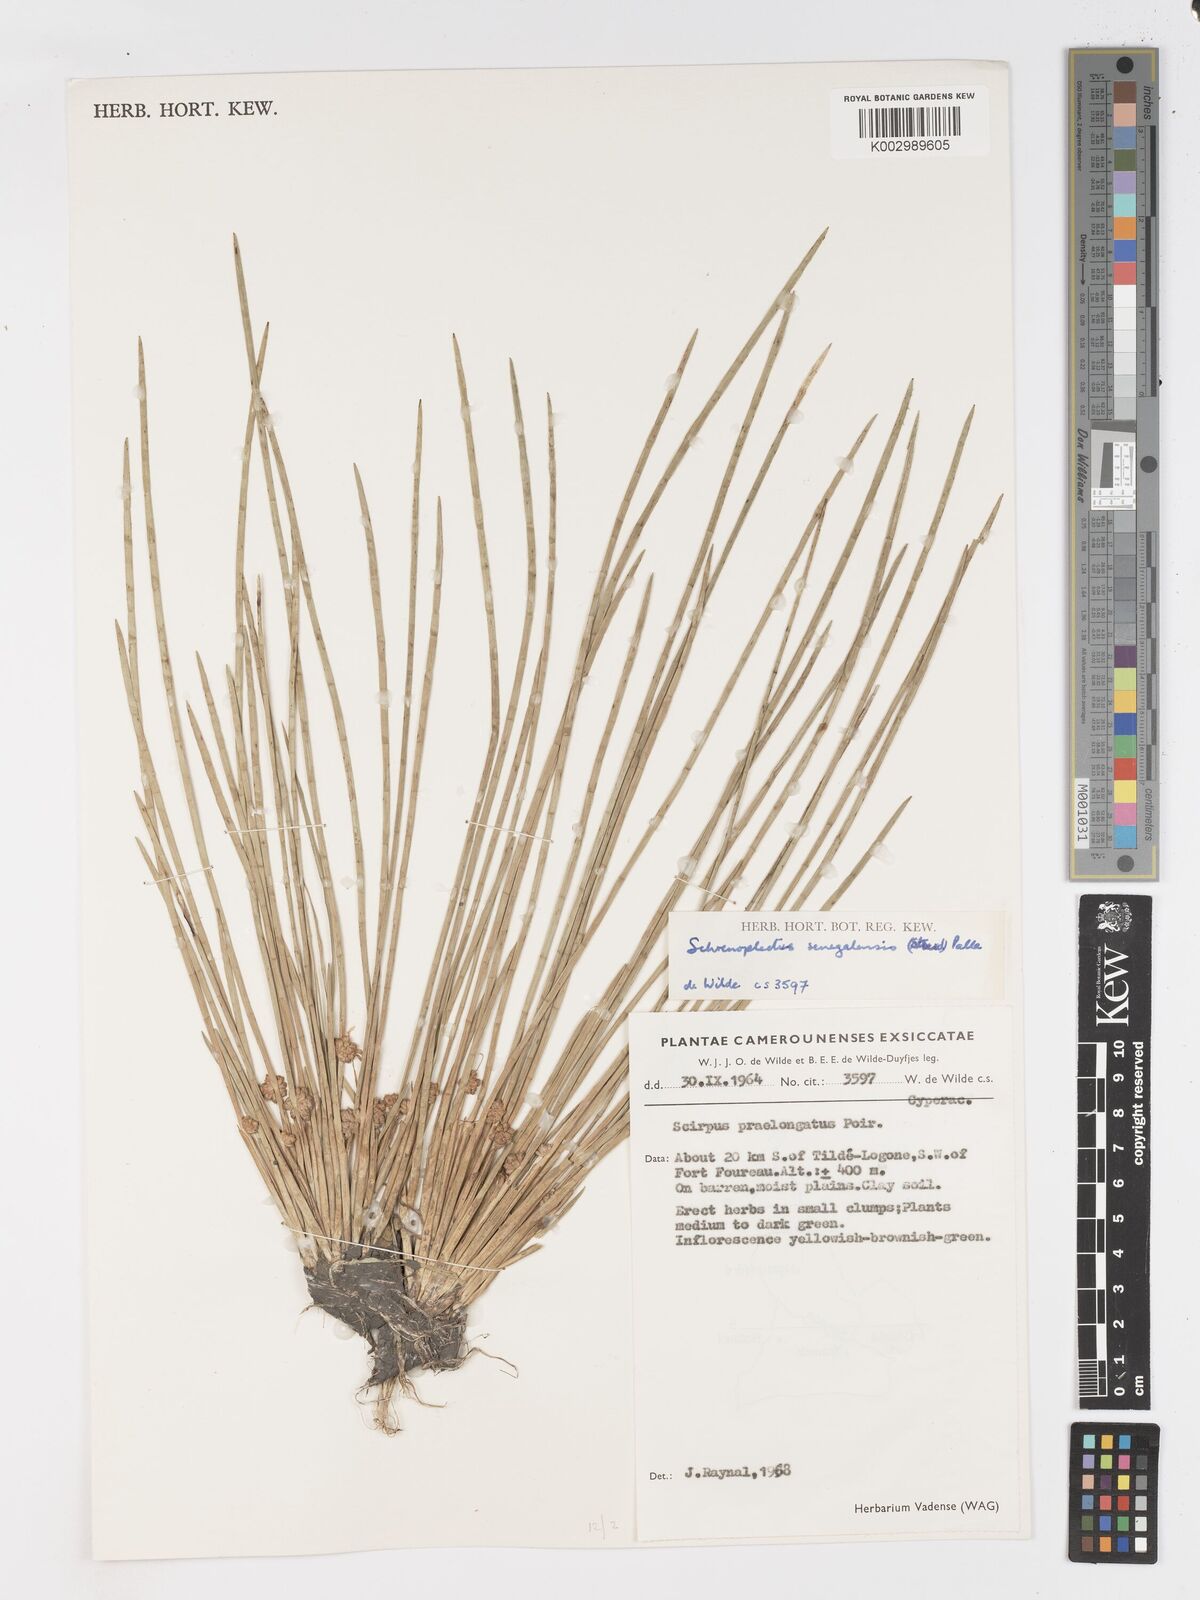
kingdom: Plantae
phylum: Tracheophyta
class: Liliopsida
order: Poales
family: Cyperaceae
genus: Schoenoplectiella
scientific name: Schoenoplectiella senegalensis
